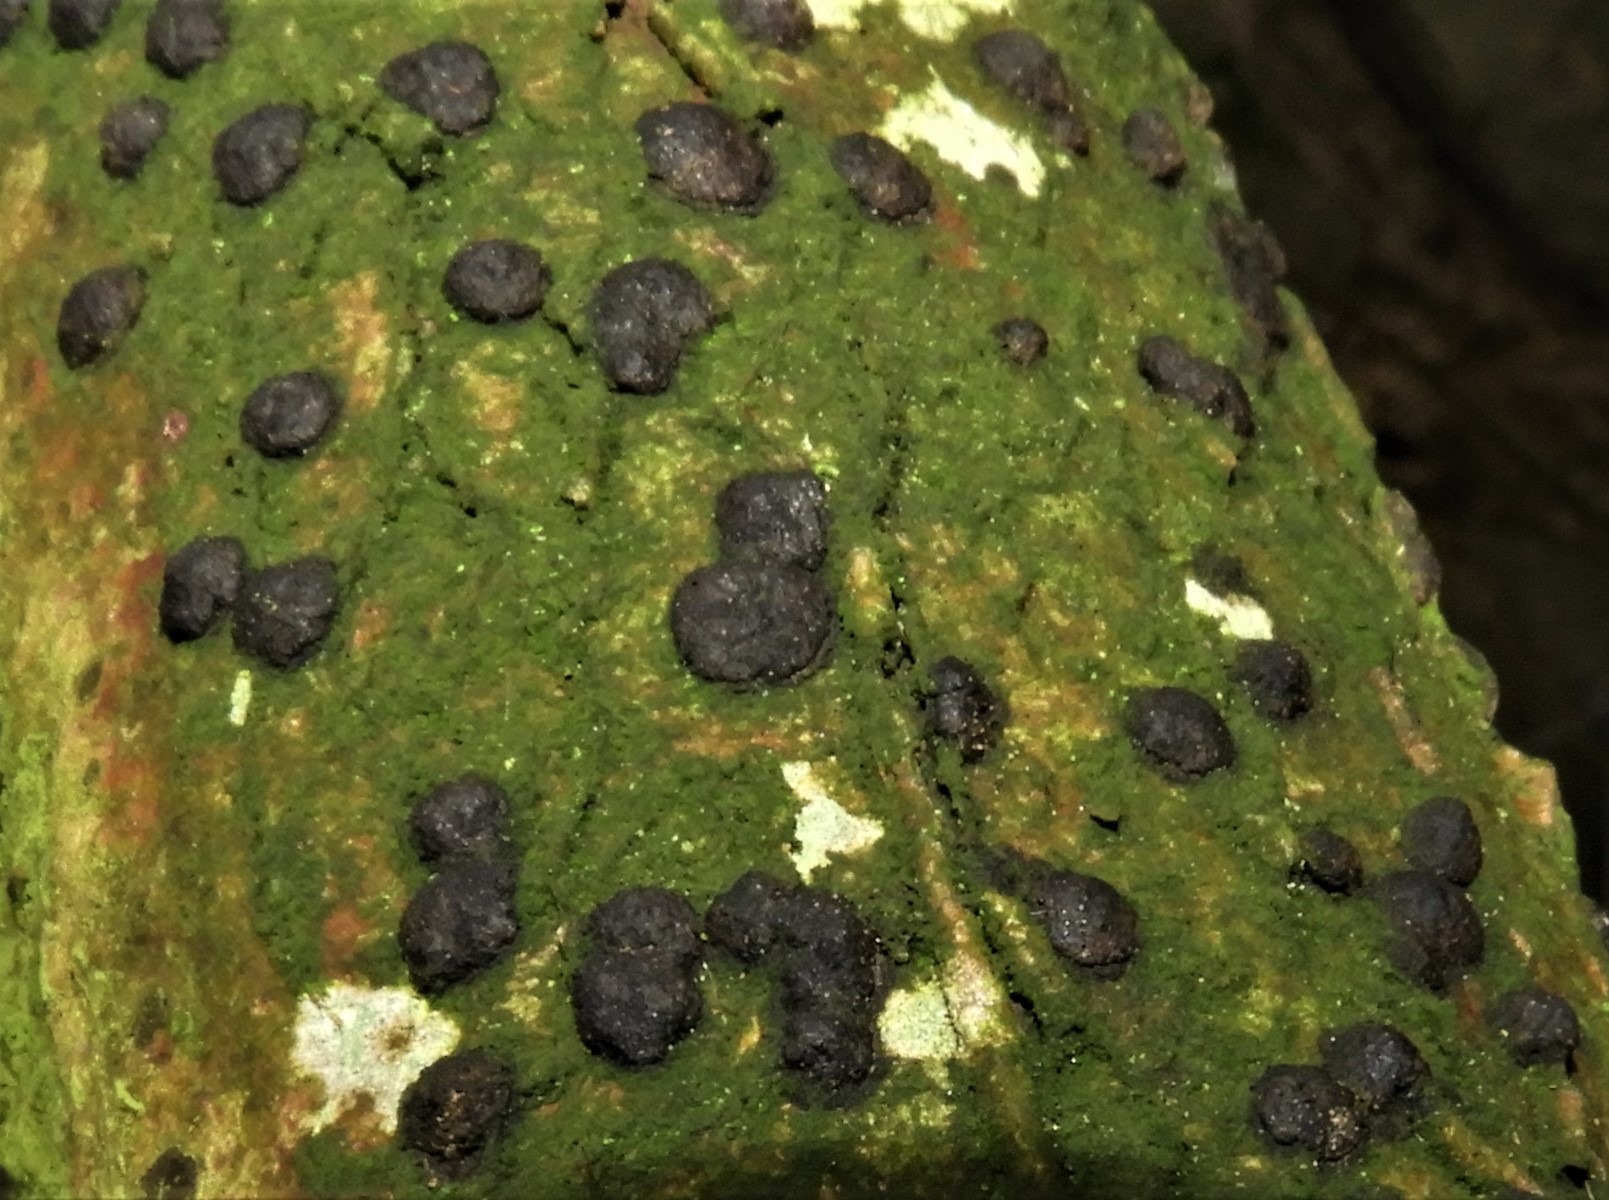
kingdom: Fungi
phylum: Ascomycota
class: Sordariomycetes
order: Xylariales
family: Hypoxylaceae
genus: Hypoxylon
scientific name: Hypoxylon fuscum
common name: kegleformet kulbær
